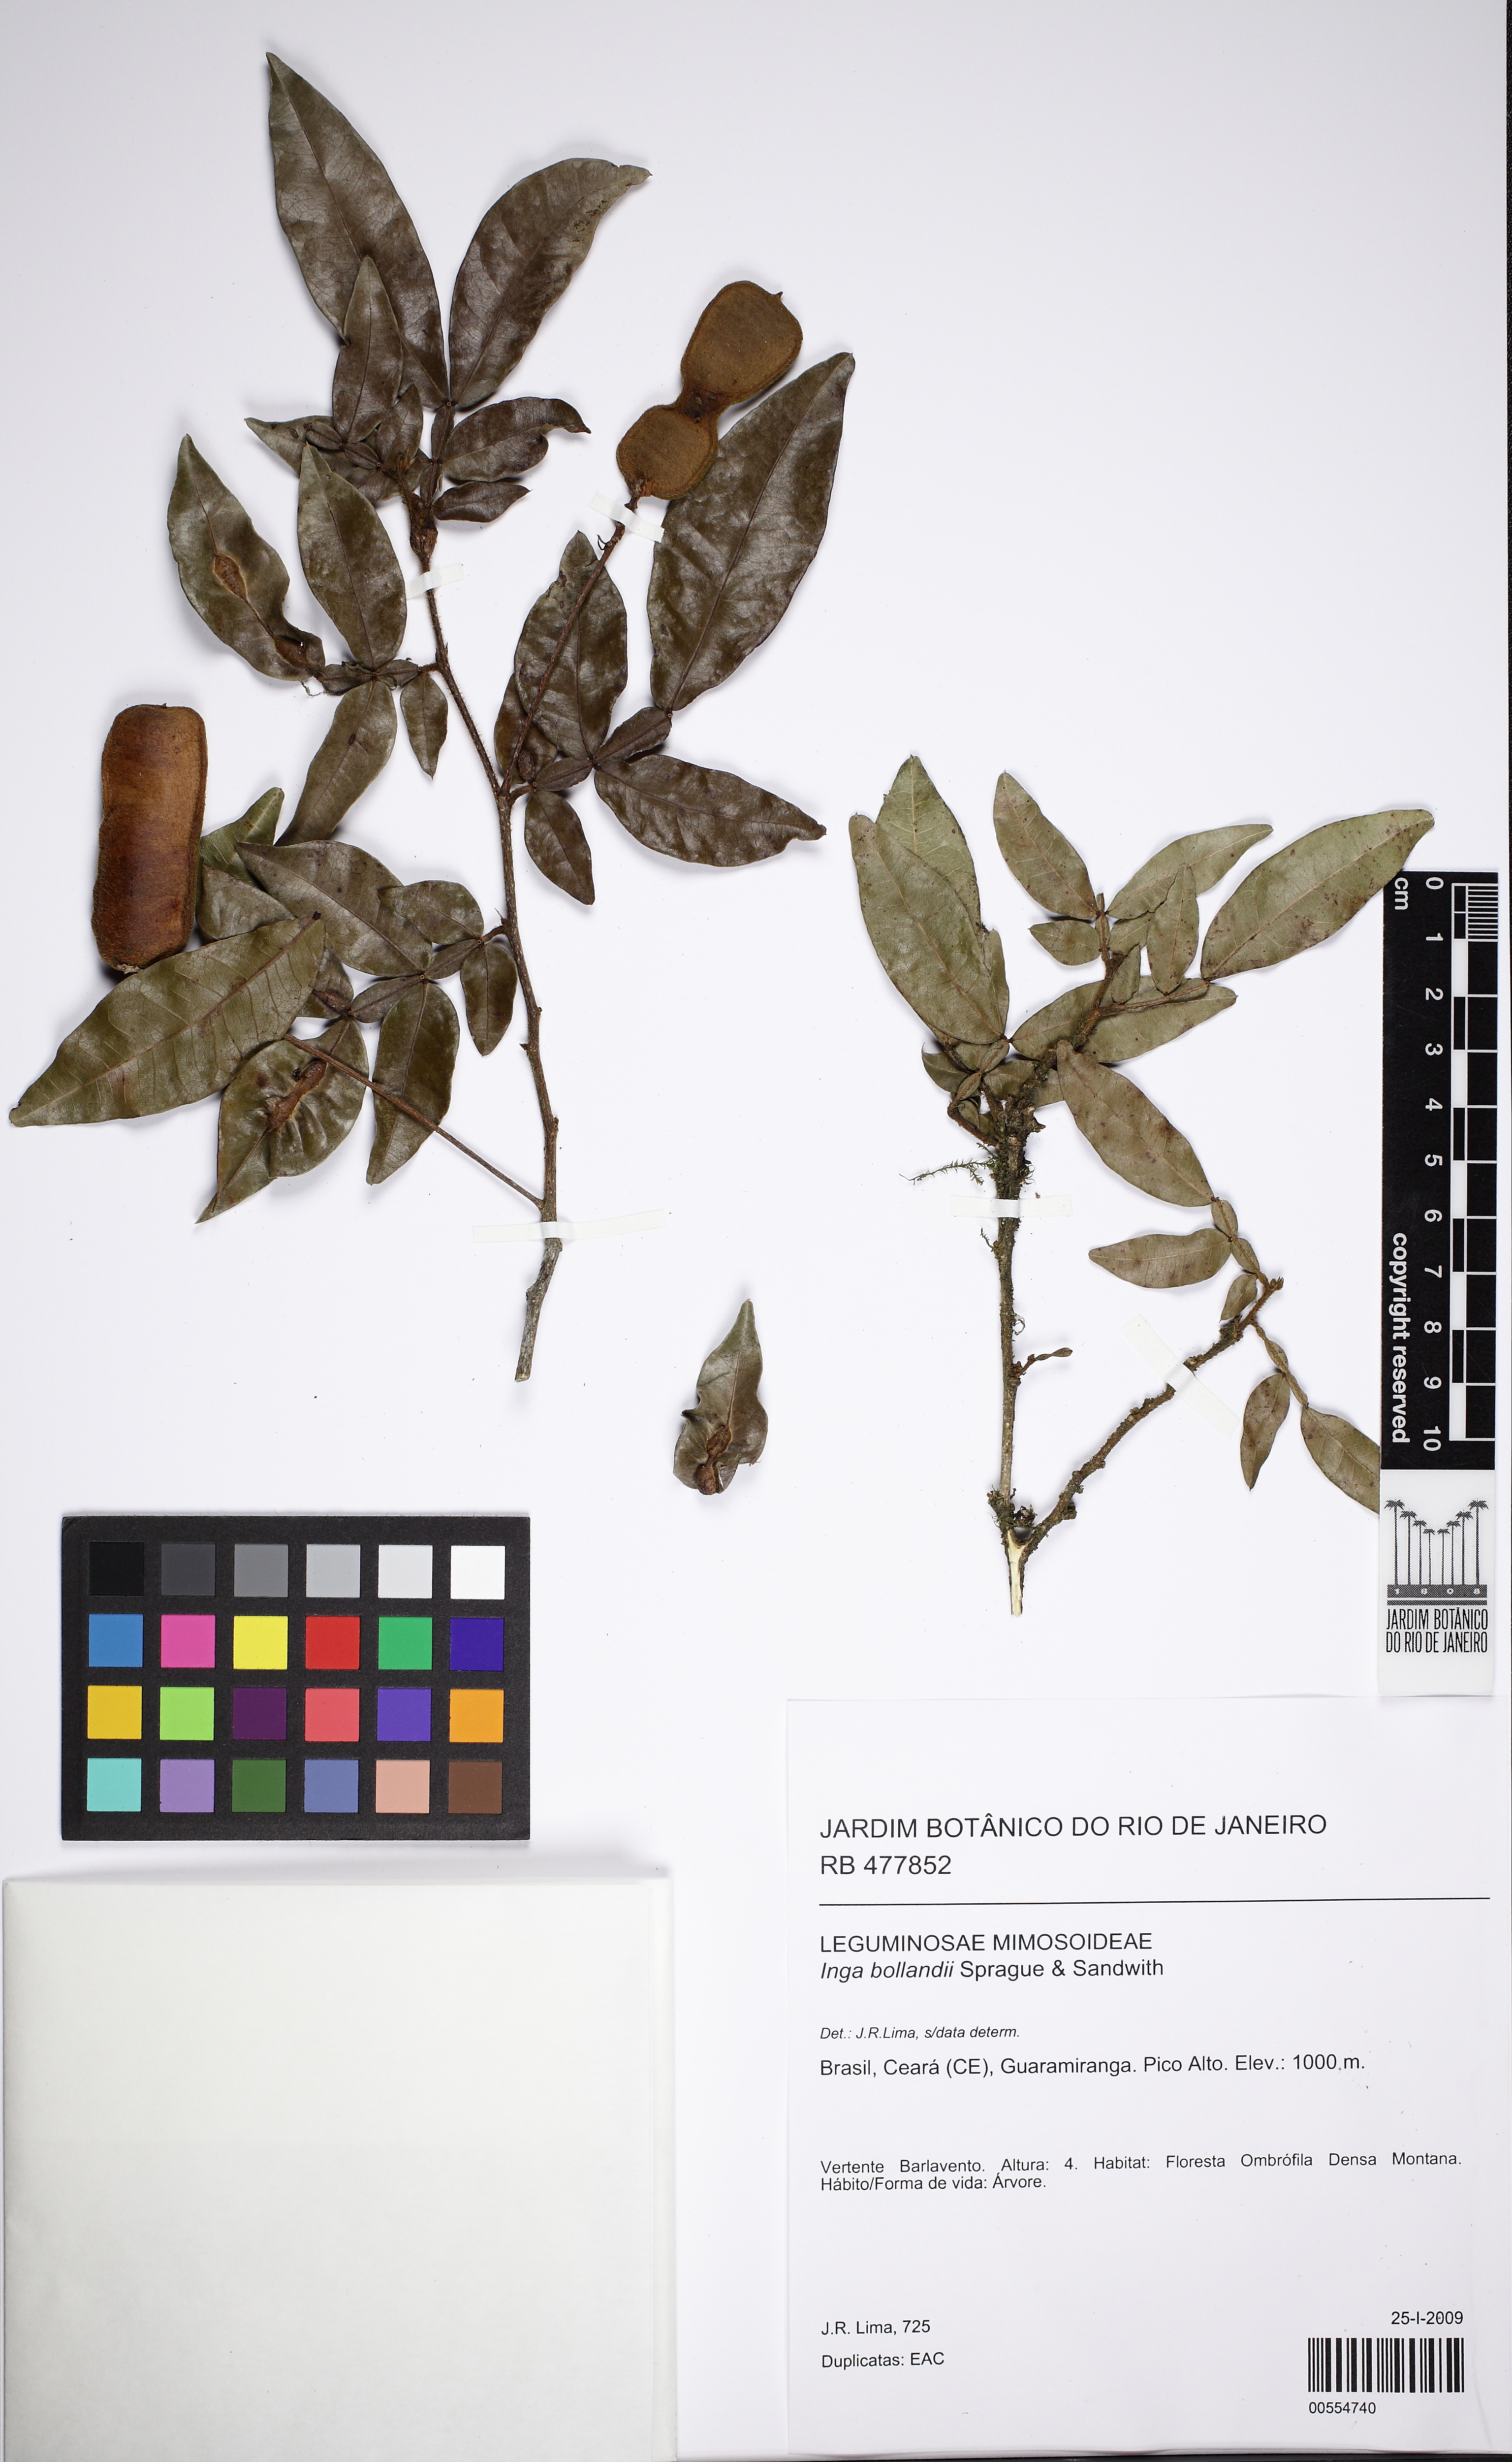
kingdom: Plantae
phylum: Tracheophyta
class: Magnoliopsida
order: Fabales
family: Fabaceae
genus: Inga
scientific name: Inga bollandii
